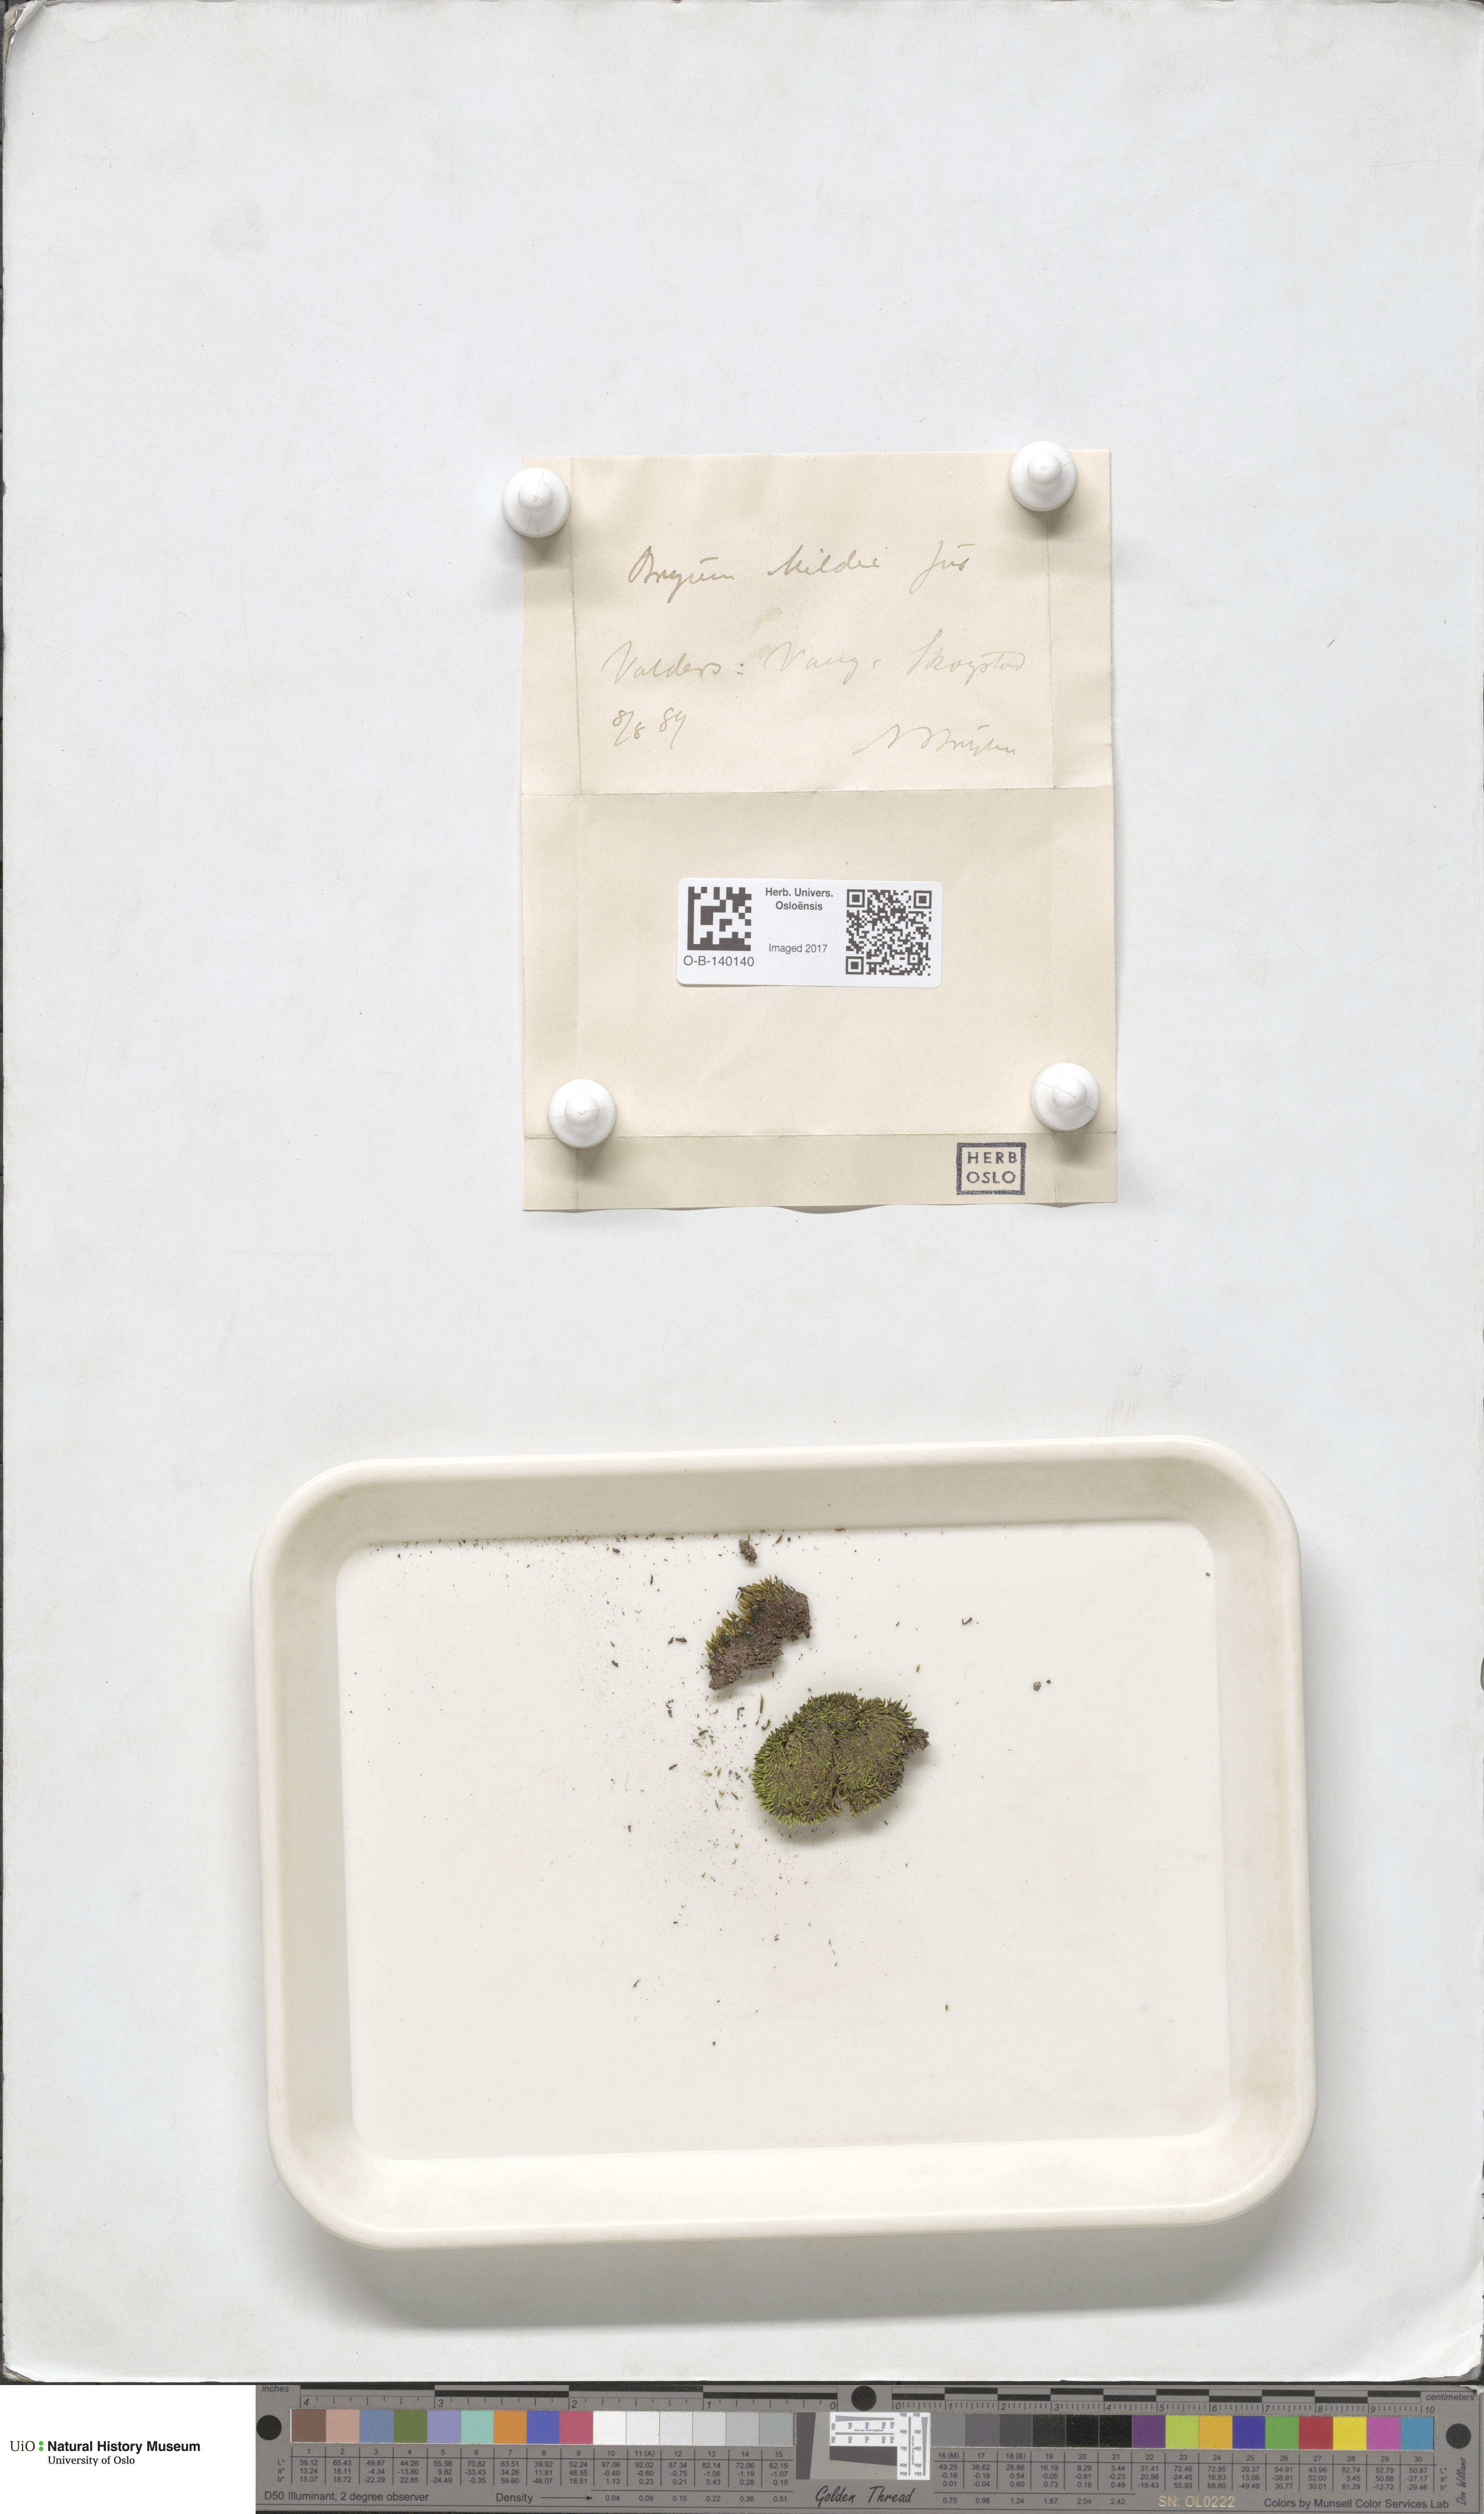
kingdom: Plantae
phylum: Bryophyta
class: Bryopsida
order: Bryales
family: Bryaceae
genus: Imbribryum
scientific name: Imbribryum mildeanum
